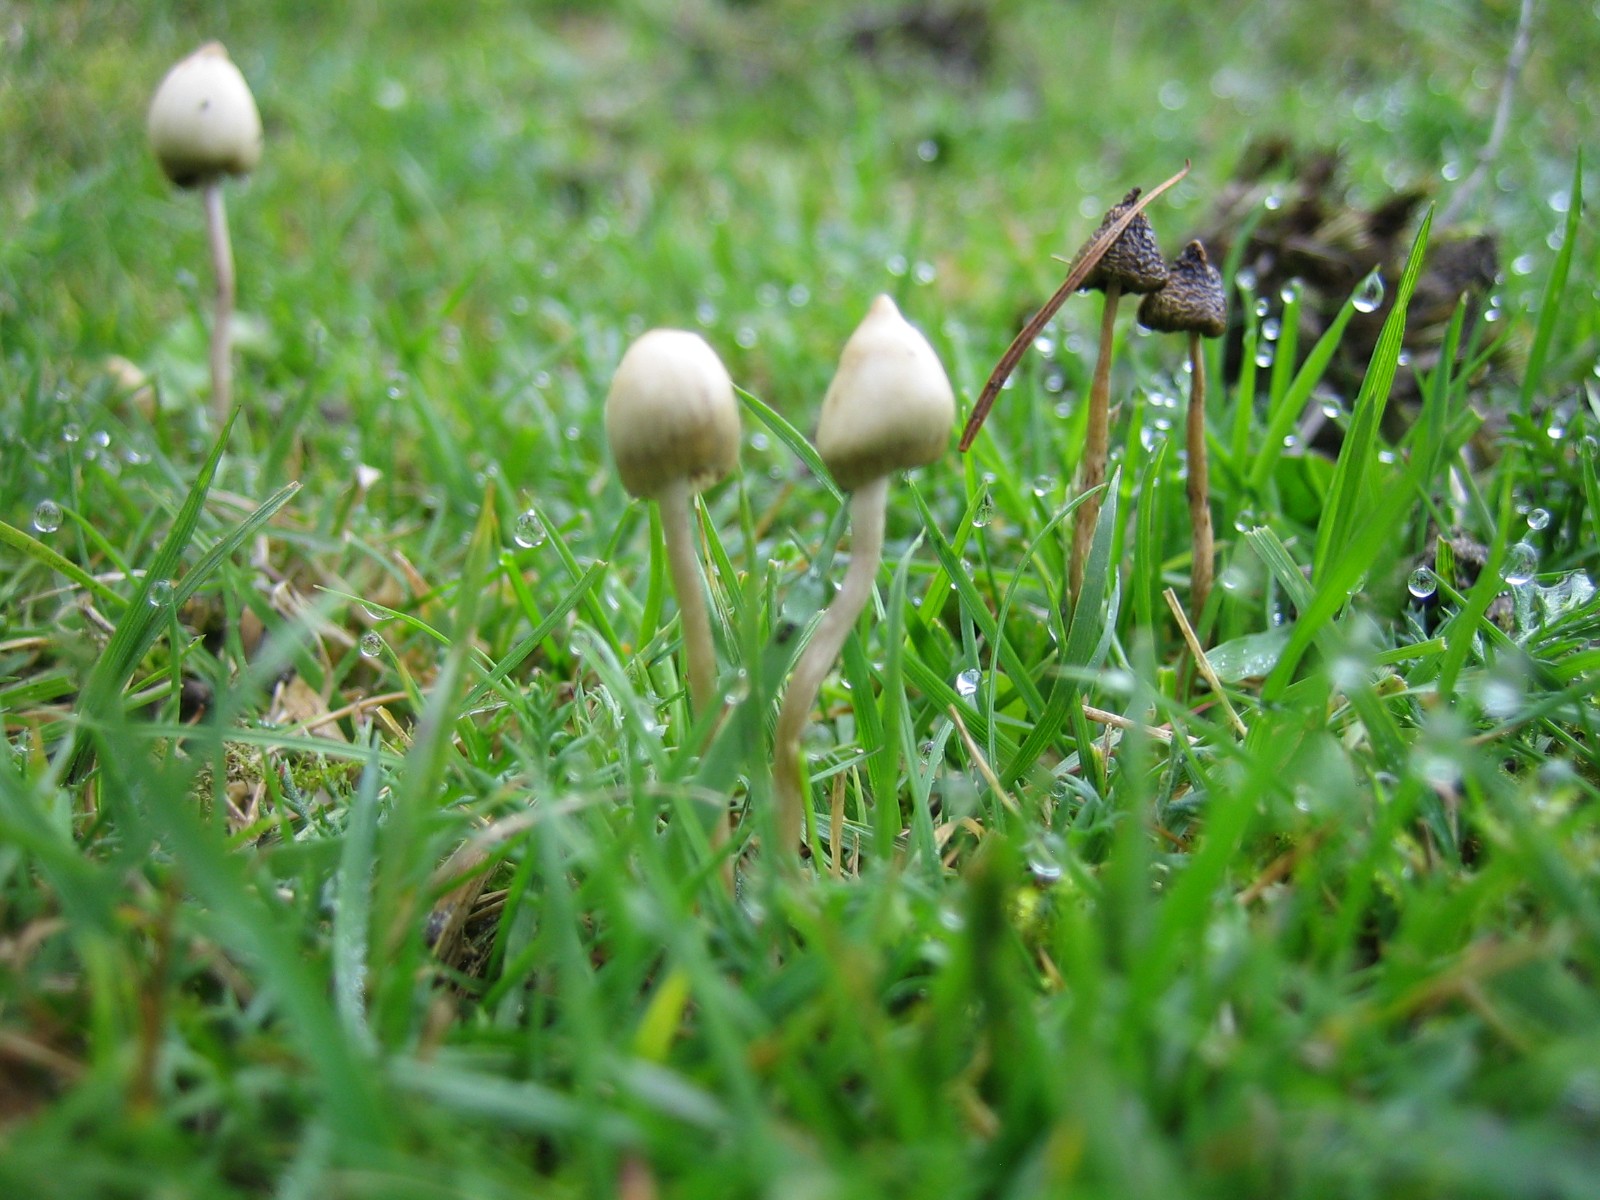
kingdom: Fungi
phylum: Basidiomycota
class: Agaricomycetes
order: Agaricales
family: Hymenogastraceae
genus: Psilocybe
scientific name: Psilocybe semilanceata
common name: spids nøgenhat
